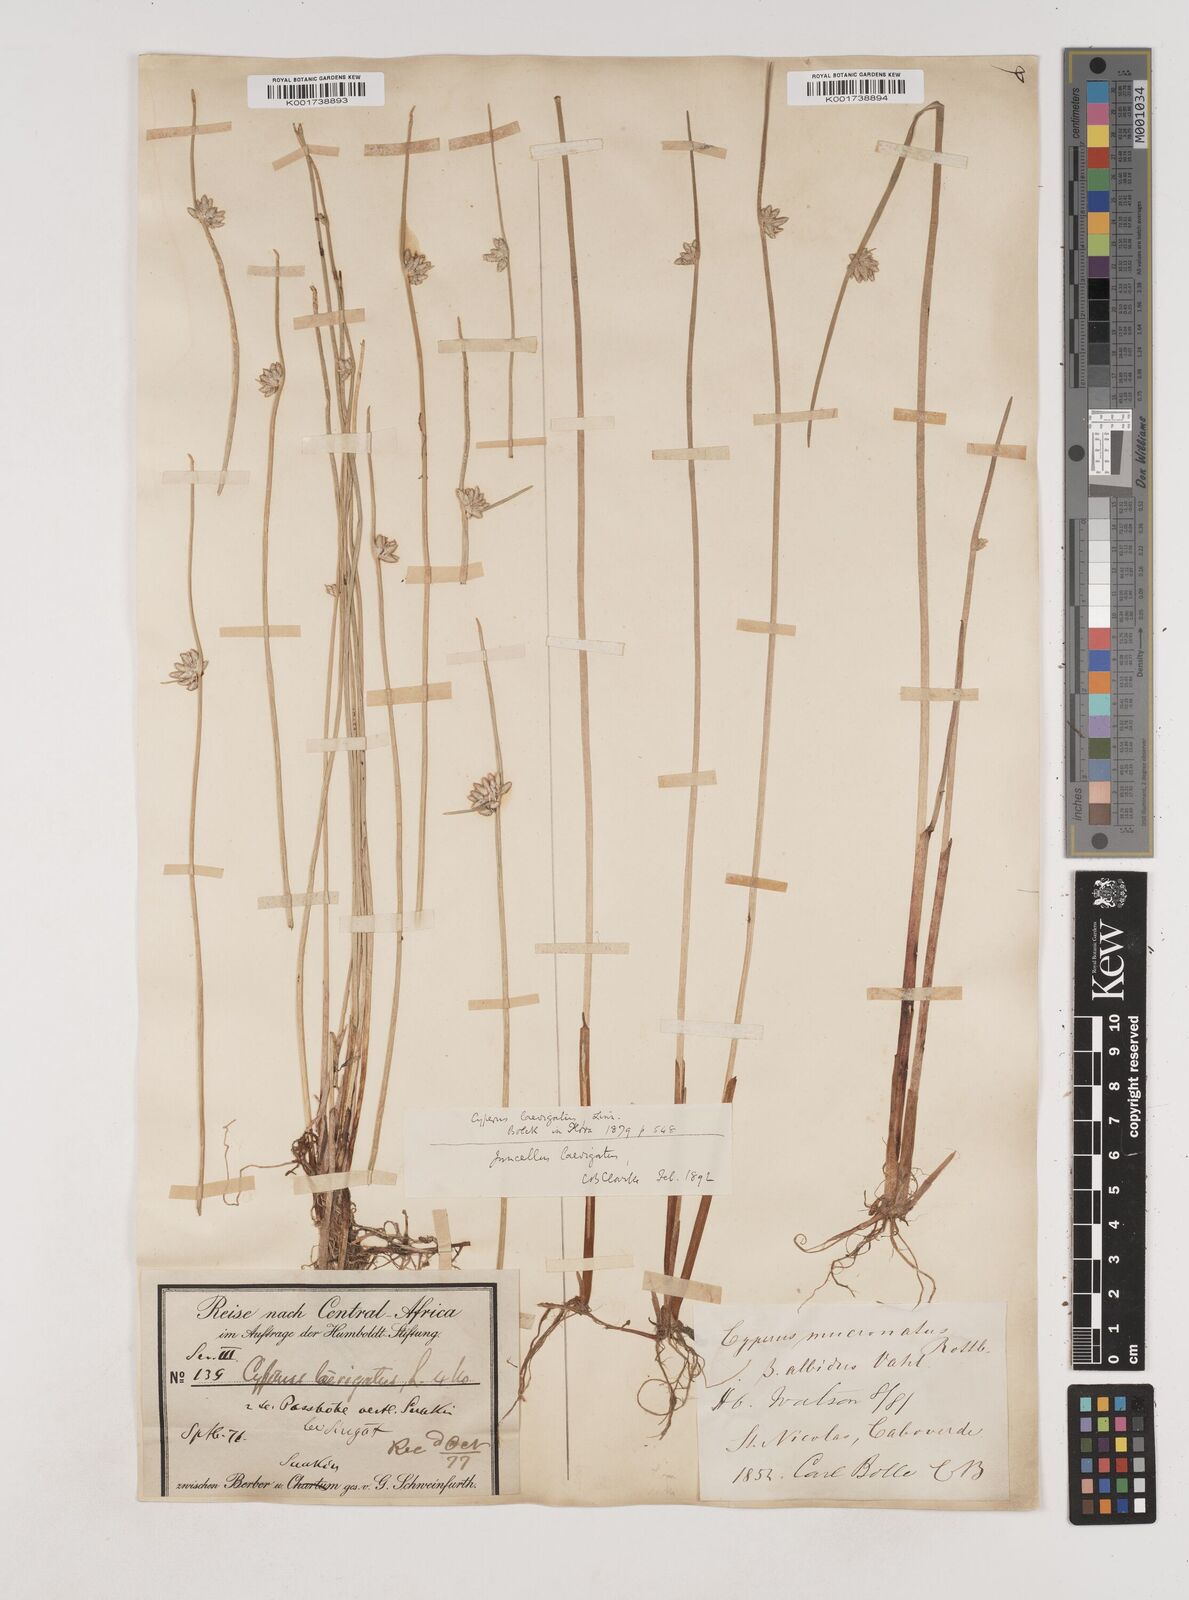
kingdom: Plantae
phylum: Tracheophyta
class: Liliopsida
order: Poales
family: Cyperaceae
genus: Cyperus
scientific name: Cyperus laevigatus
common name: Smooth flat sedge
